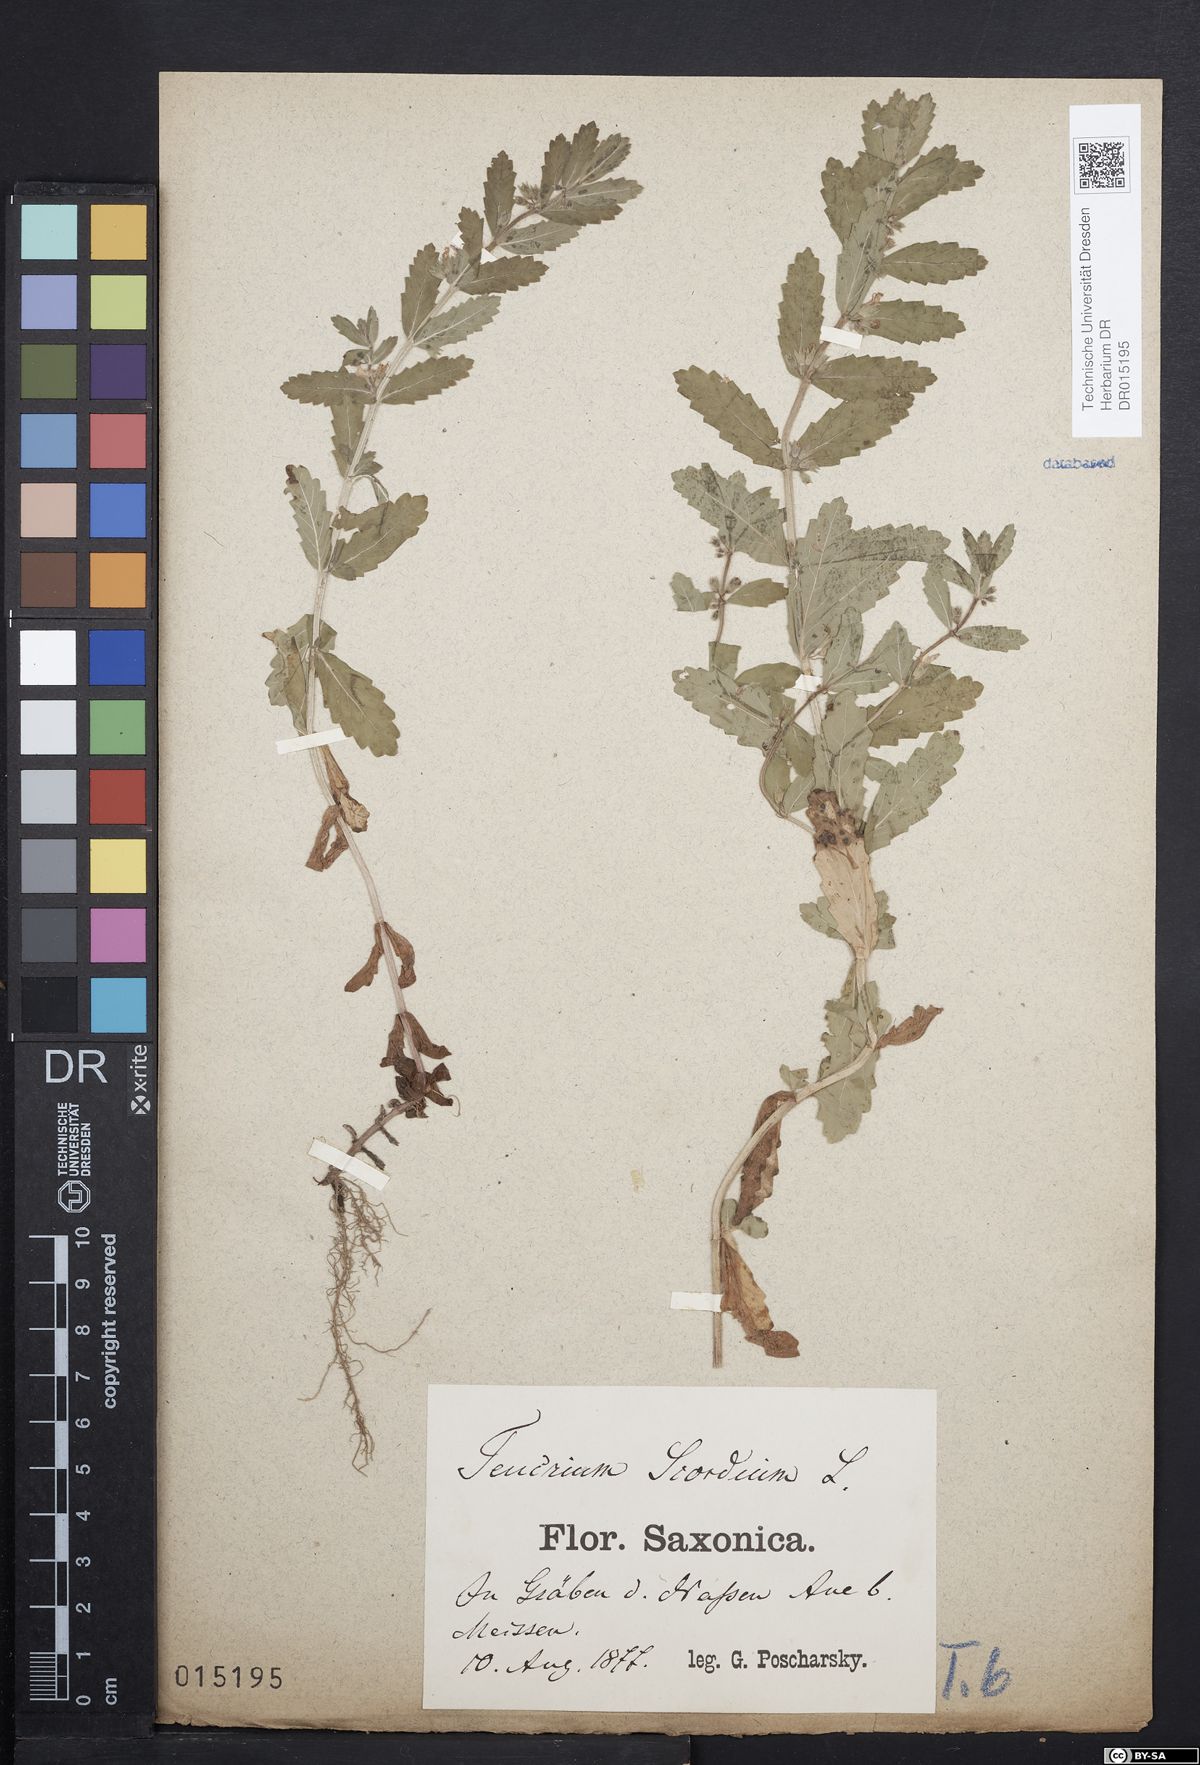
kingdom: Plantae
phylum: Tracheophyta
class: Magnoliopsida
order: Lamiales
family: Lamiaceae
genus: Teucrium
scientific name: Teucrium scordium
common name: Water germander
